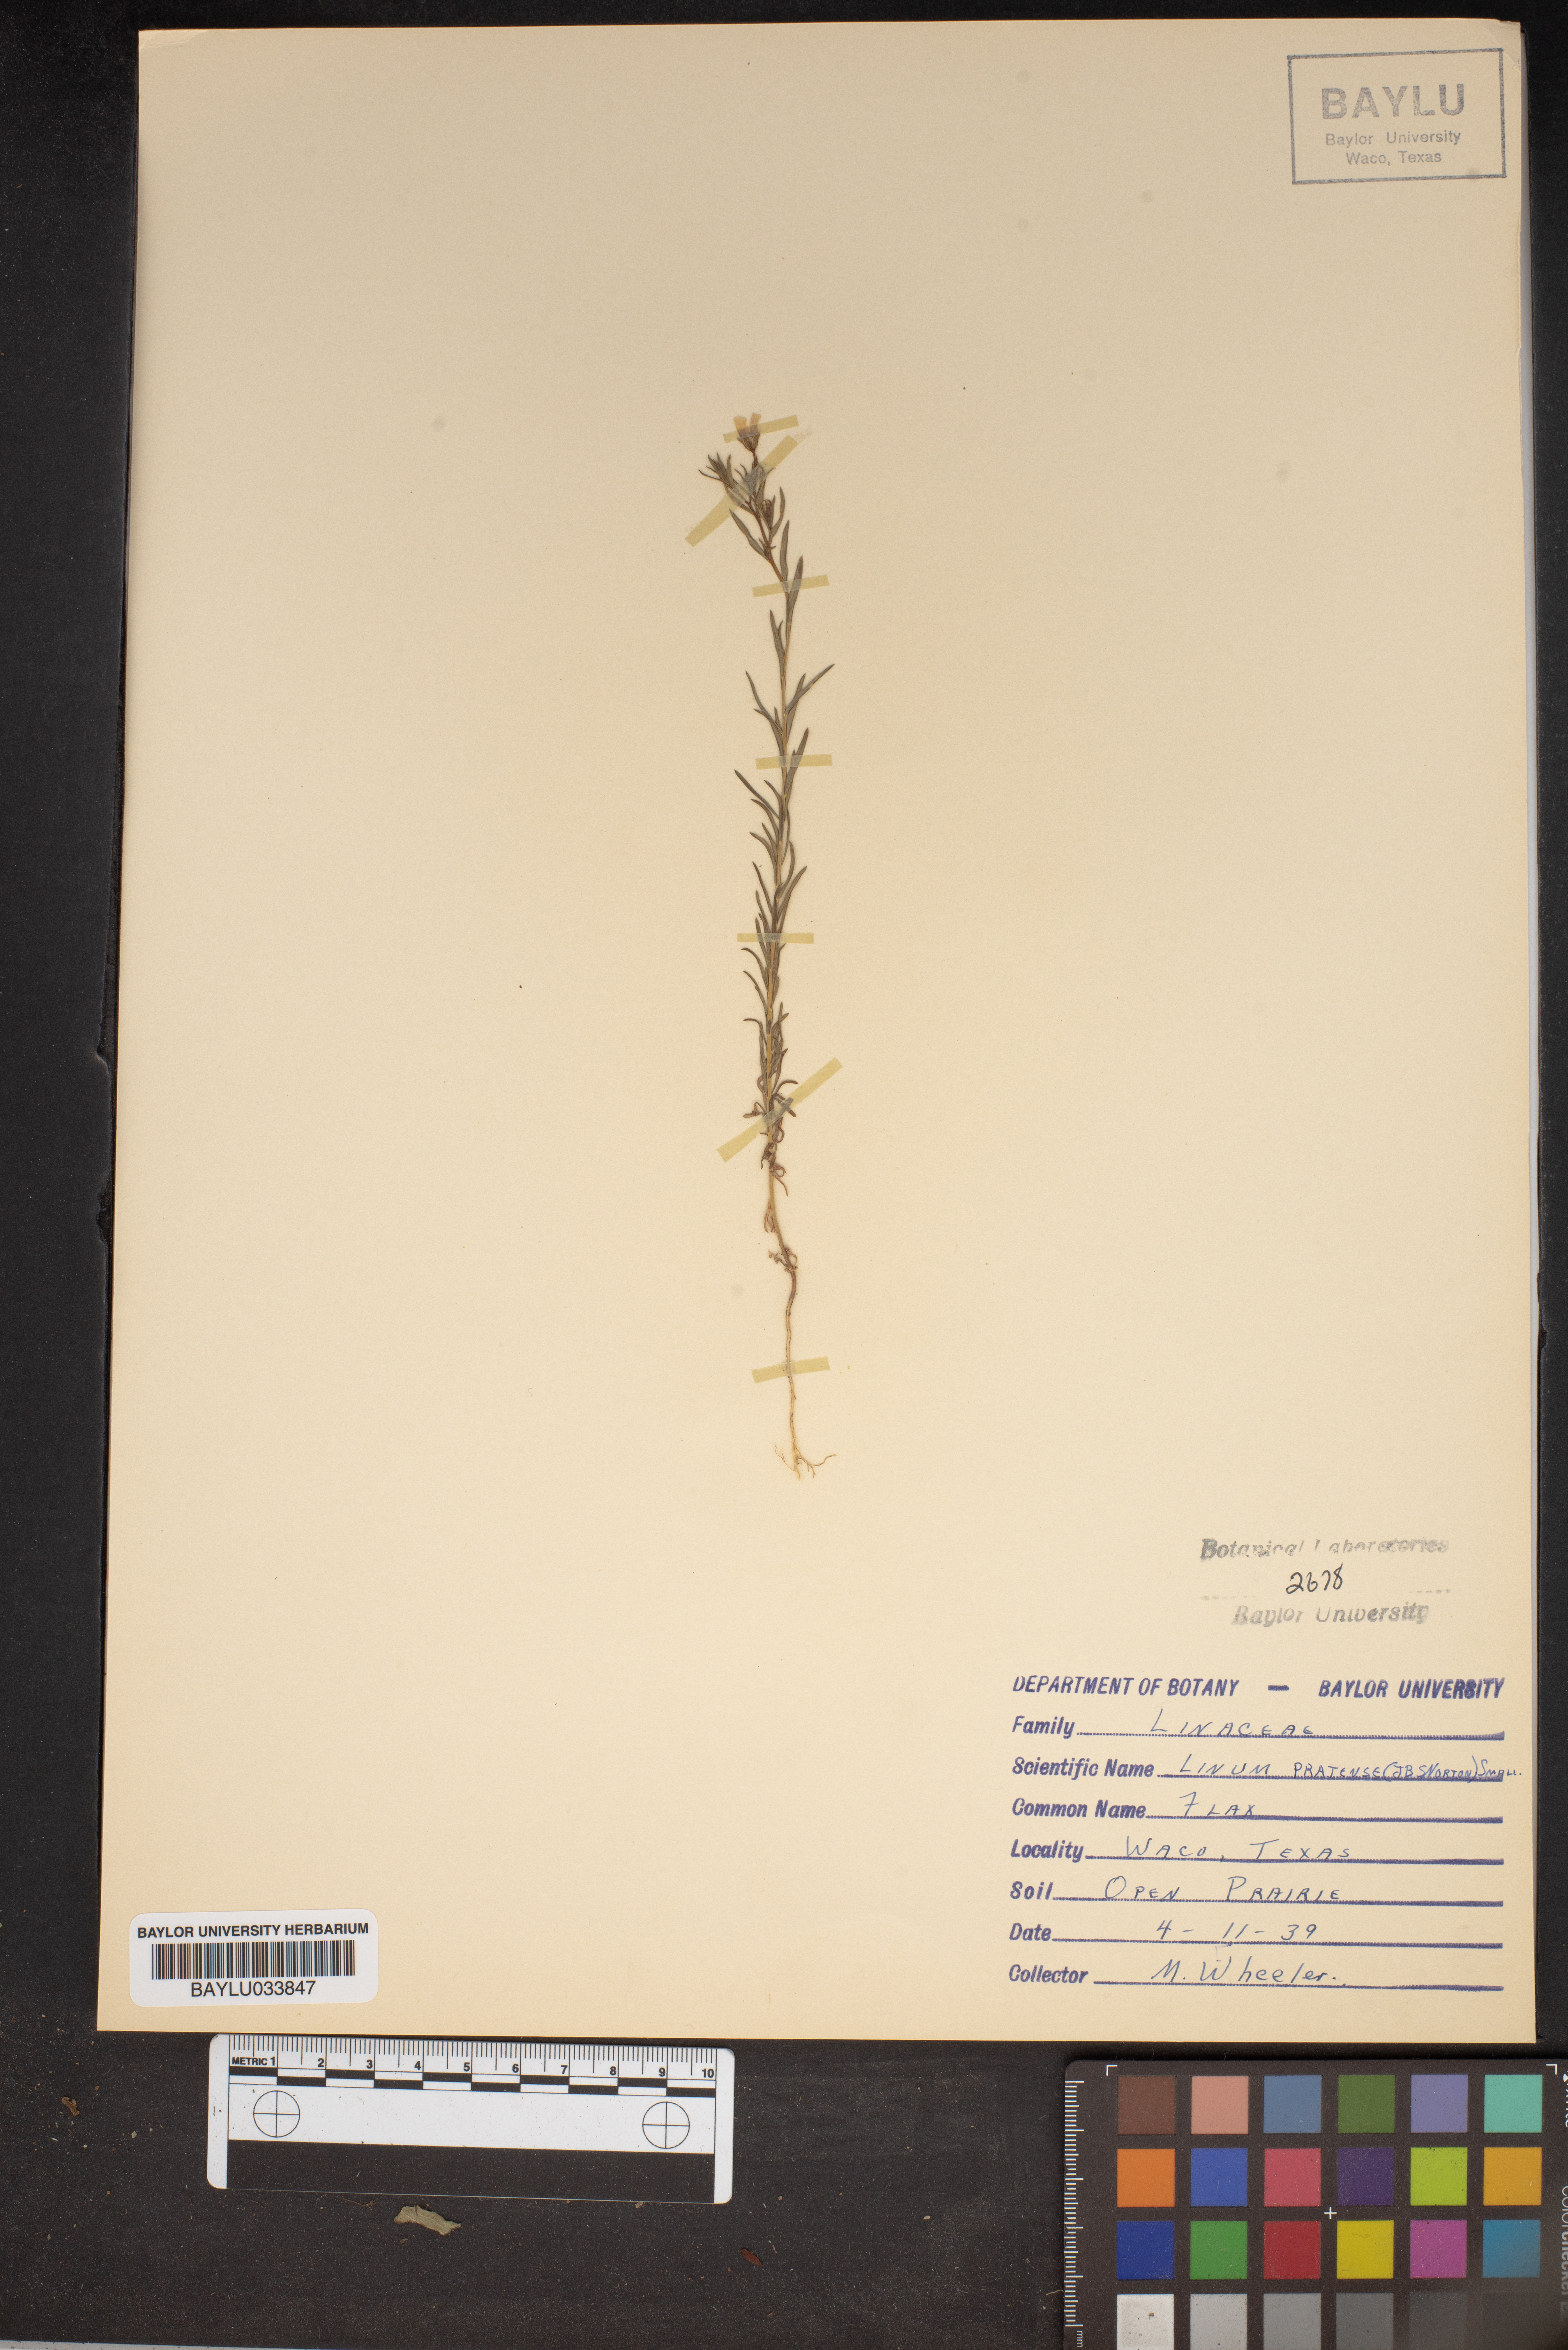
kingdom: Plantae
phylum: Tracheophyta
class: Magnoliopsida
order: Malpighiales
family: Linaceae
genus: Linum
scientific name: Linum pratense
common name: Norton's flax
